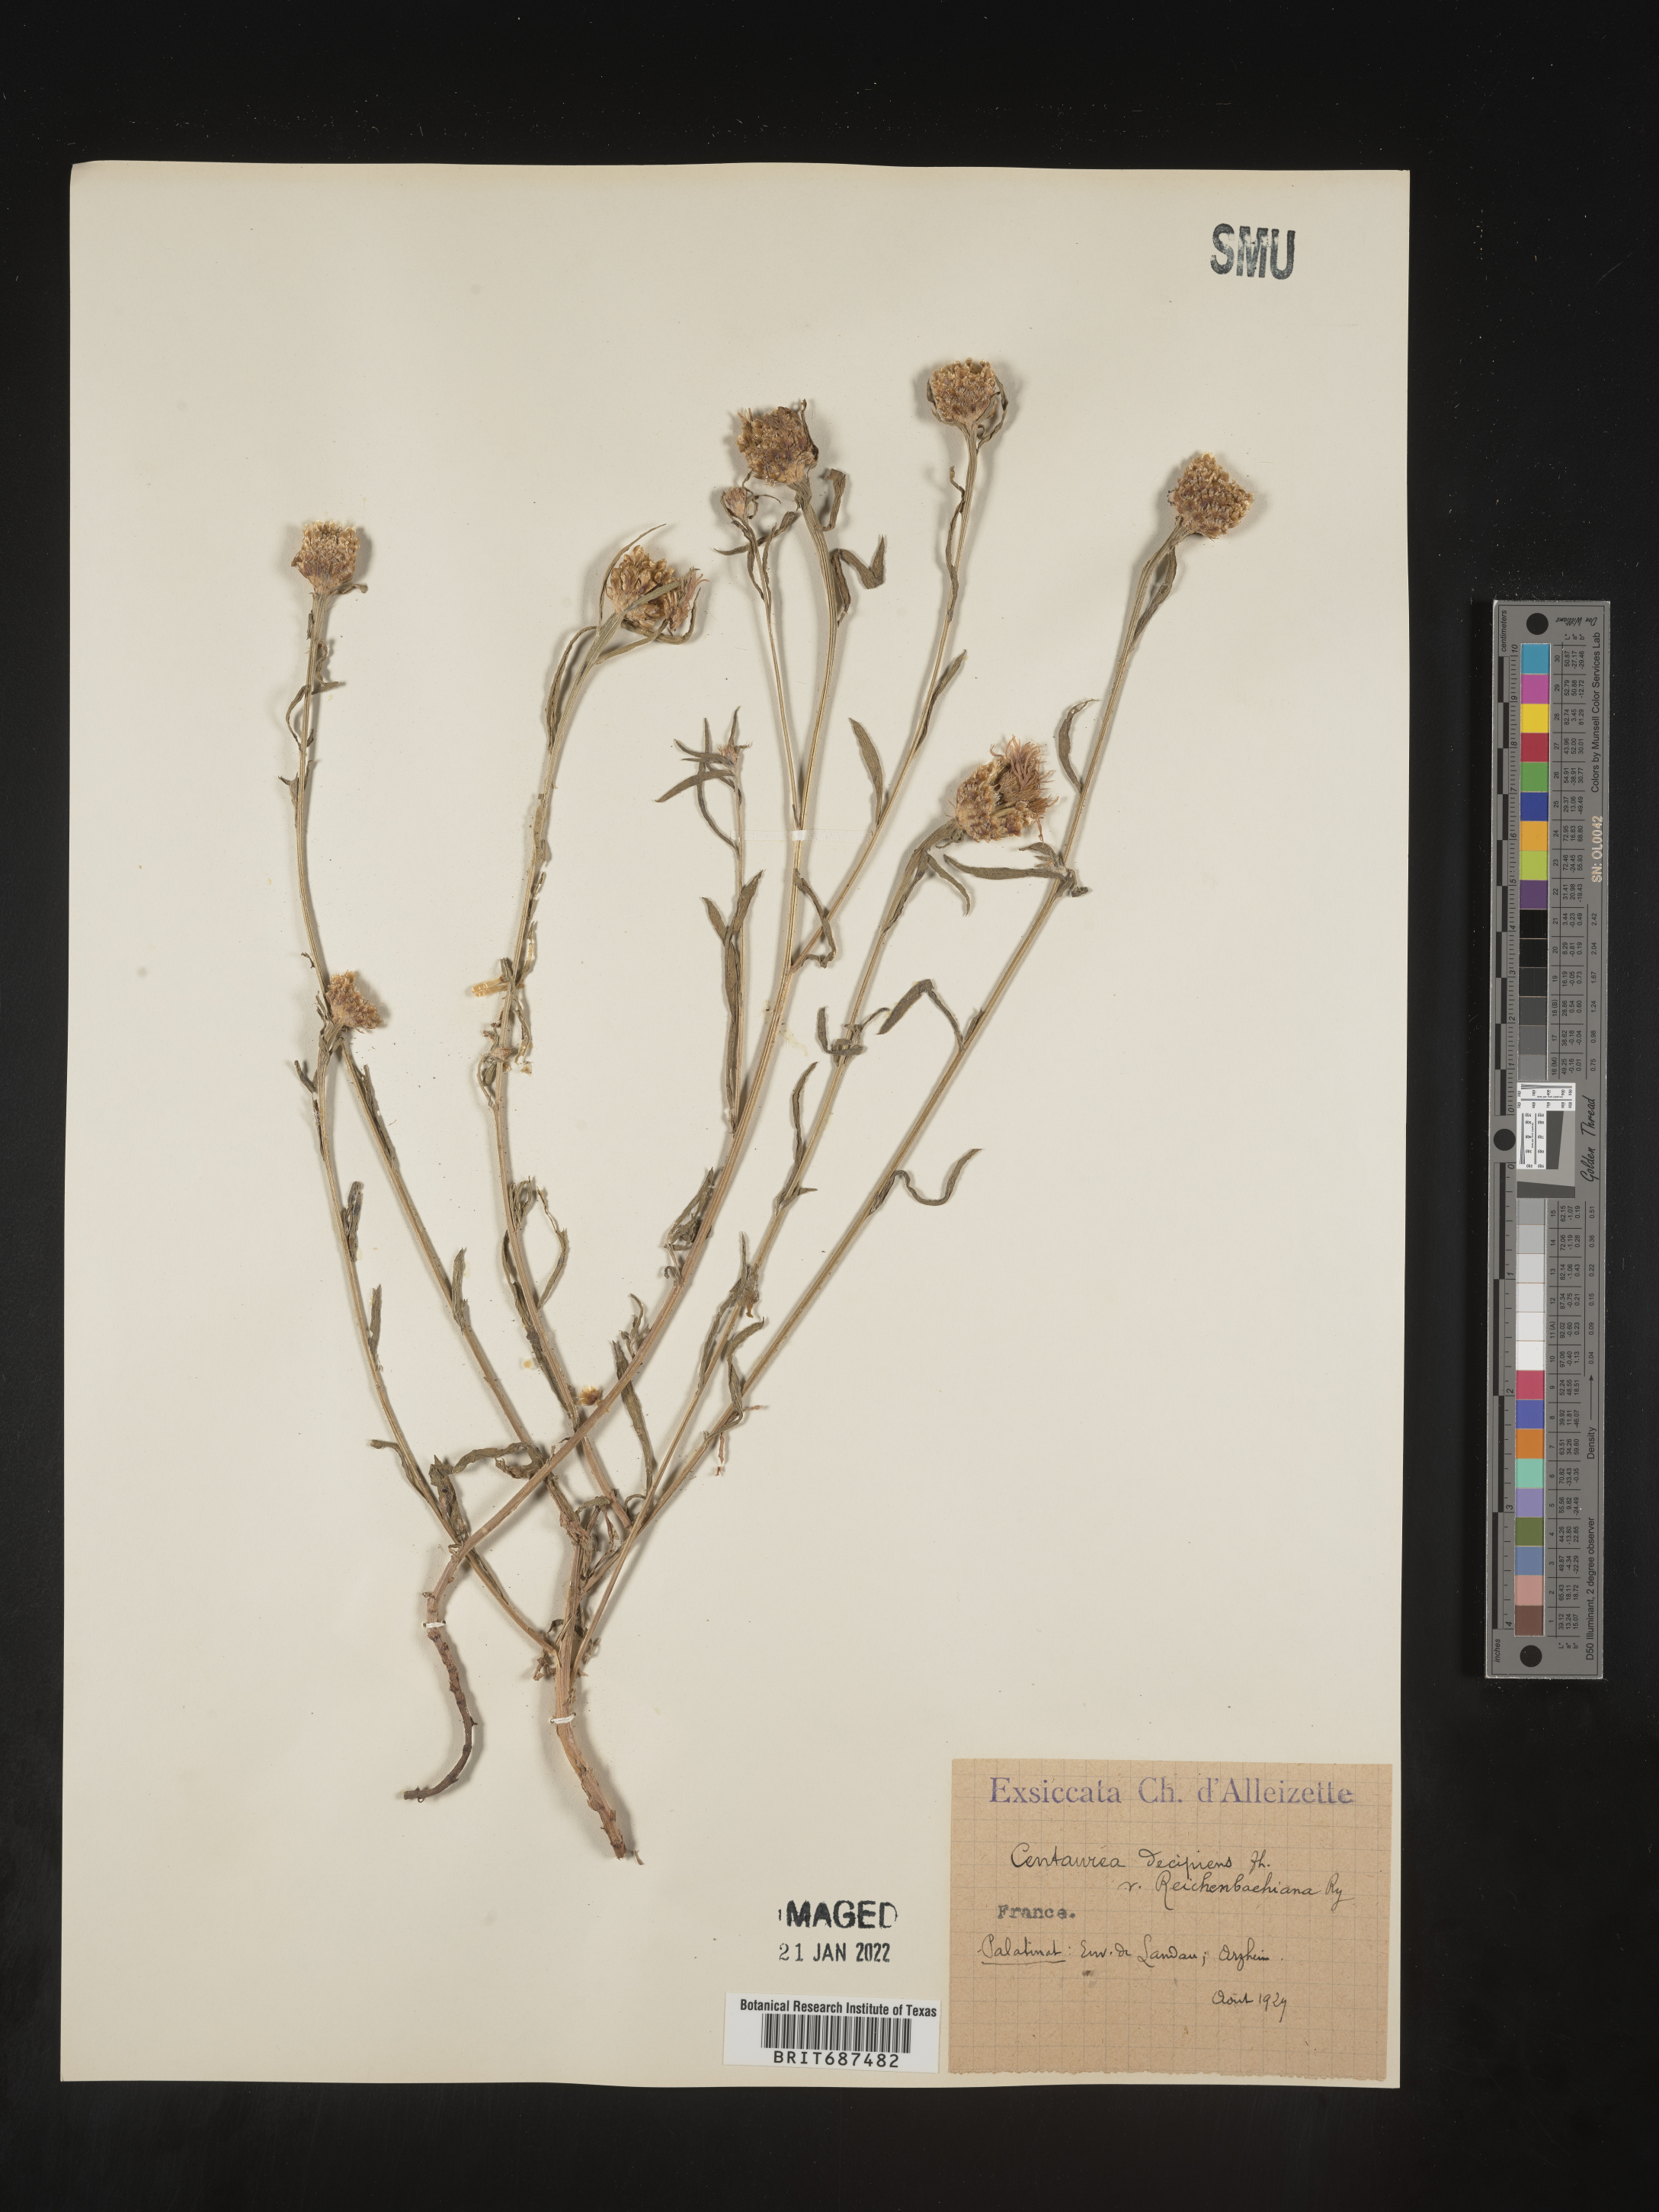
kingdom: Plantae
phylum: Tracheophyta
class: Magnoliopsida
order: Asterales
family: Asteraceae
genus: Centaurea
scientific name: Centaurea
